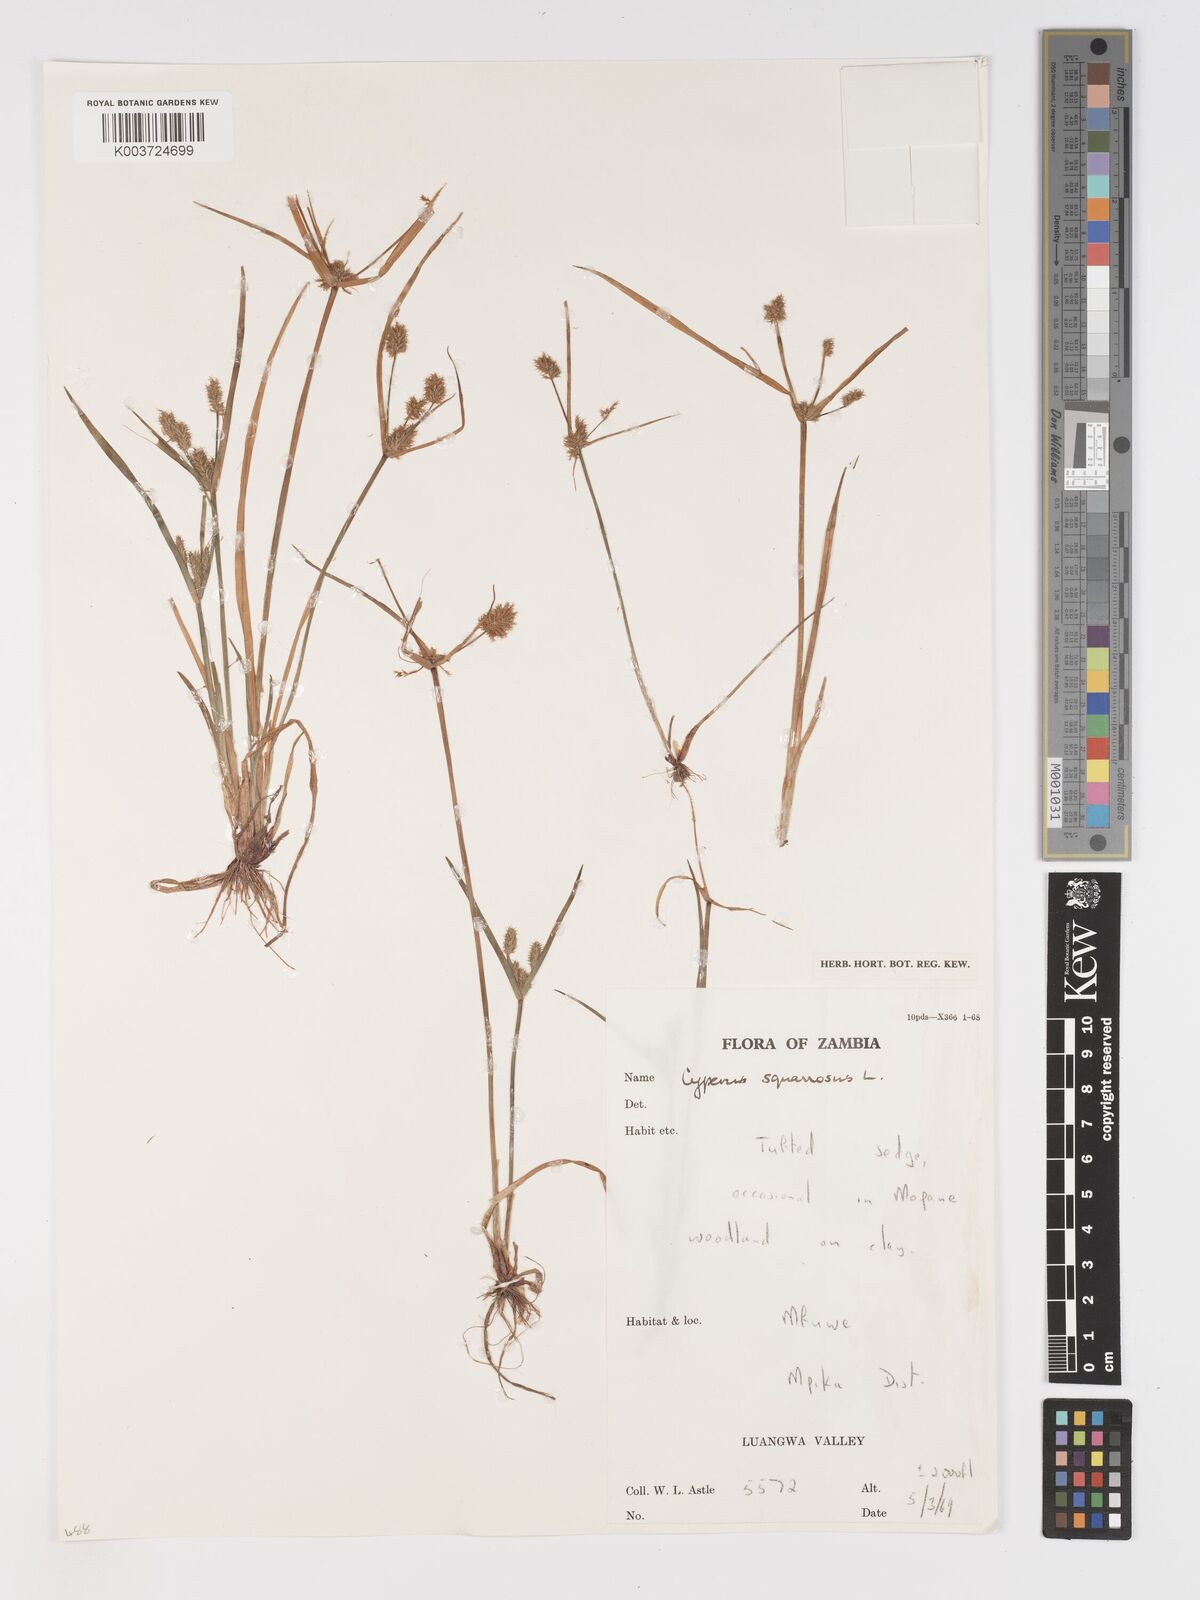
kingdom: Plantae
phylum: Tracheophyta
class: Liliopsida
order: Poales
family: Cyperaceae
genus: Cyperus
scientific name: Cyperus squarrosus
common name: Awned cyperus
